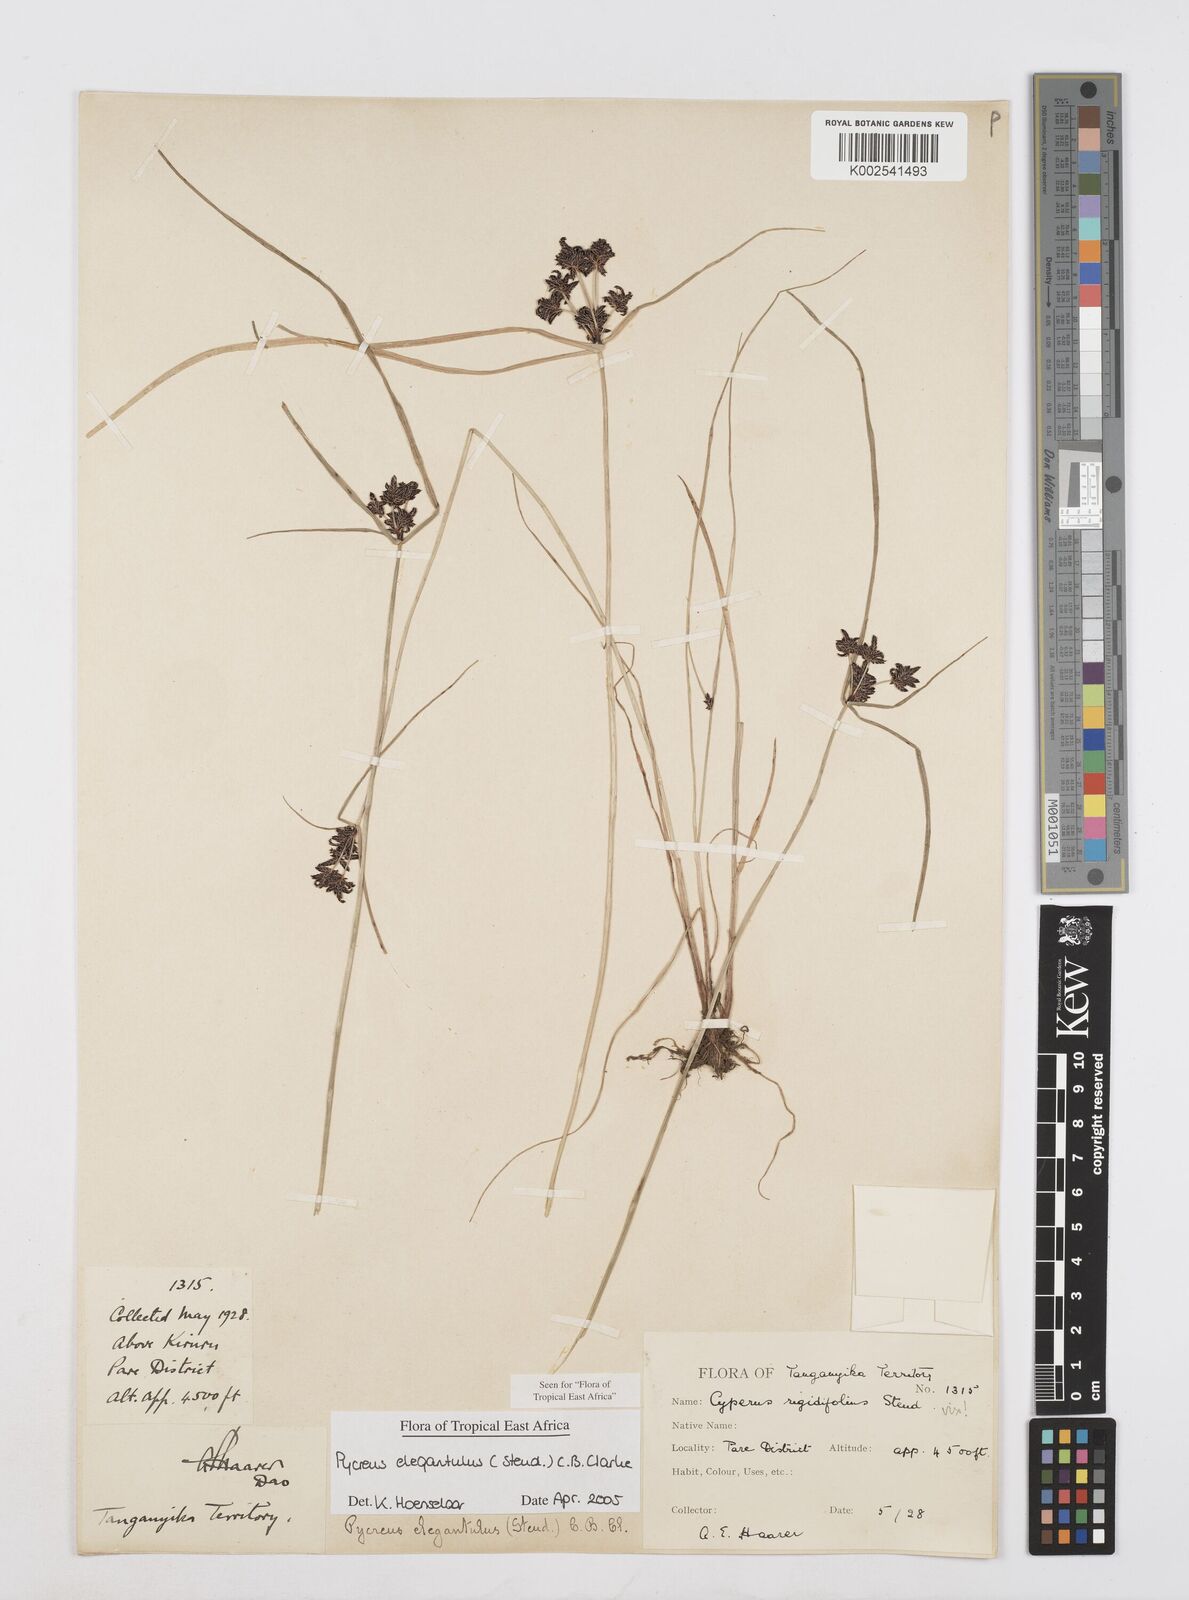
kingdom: Plantae
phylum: Tracheophyta
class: Liliopsida
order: Poales
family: Cyperaceae
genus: Cyperus
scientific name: Cyperus elegantulus
